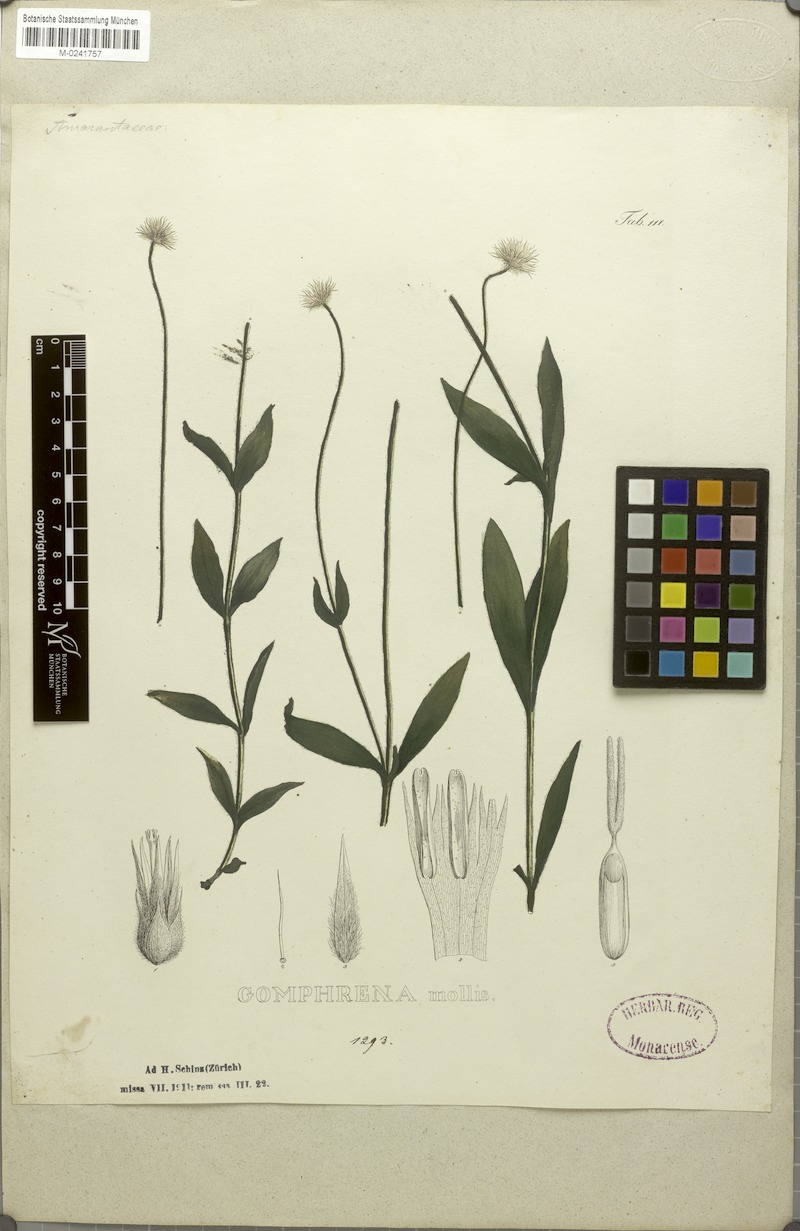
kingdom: Plantae
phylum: Tracheophyta
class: Magnoliopsida
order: Caryophyllales
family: Amaranthaceae
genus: Gomphrena
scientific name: Gomphrena mollis
